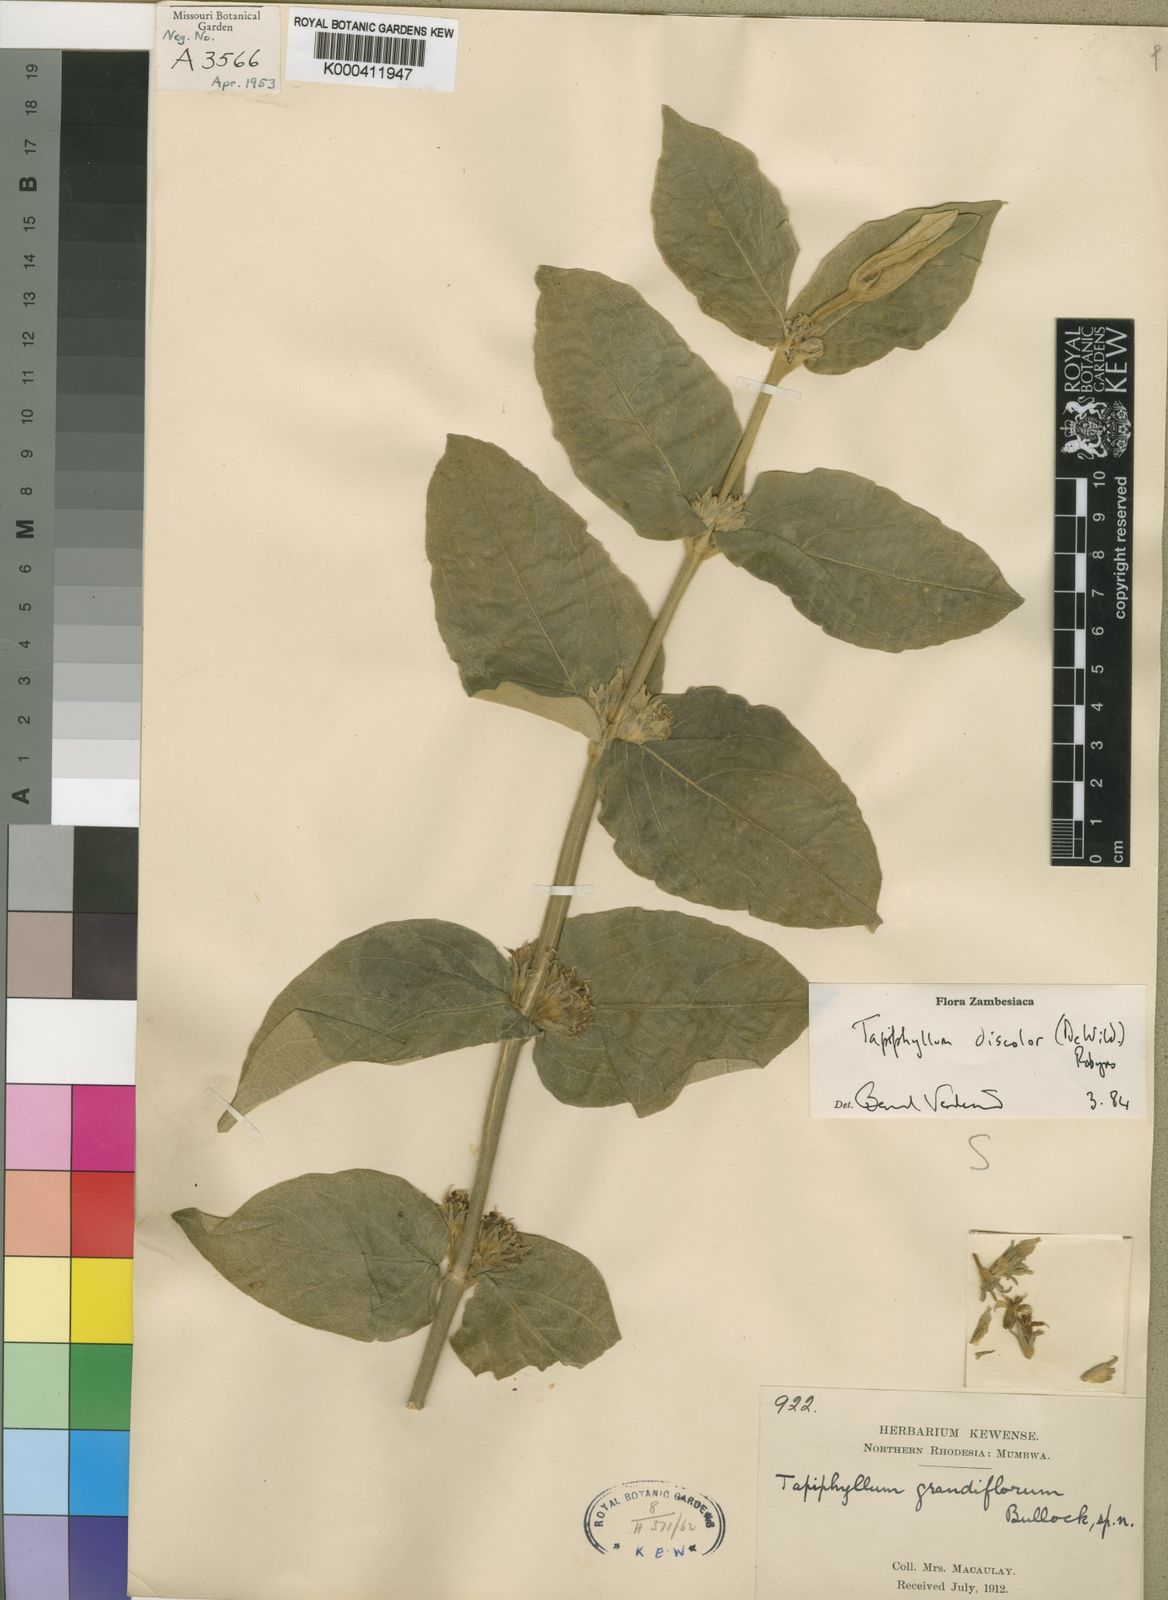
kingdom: Plantae
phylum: Tracheophyta
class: Magnoliopsida
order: Gentianales
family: Rubiaceae
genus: Vangueria
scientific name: Vangueria discolor
